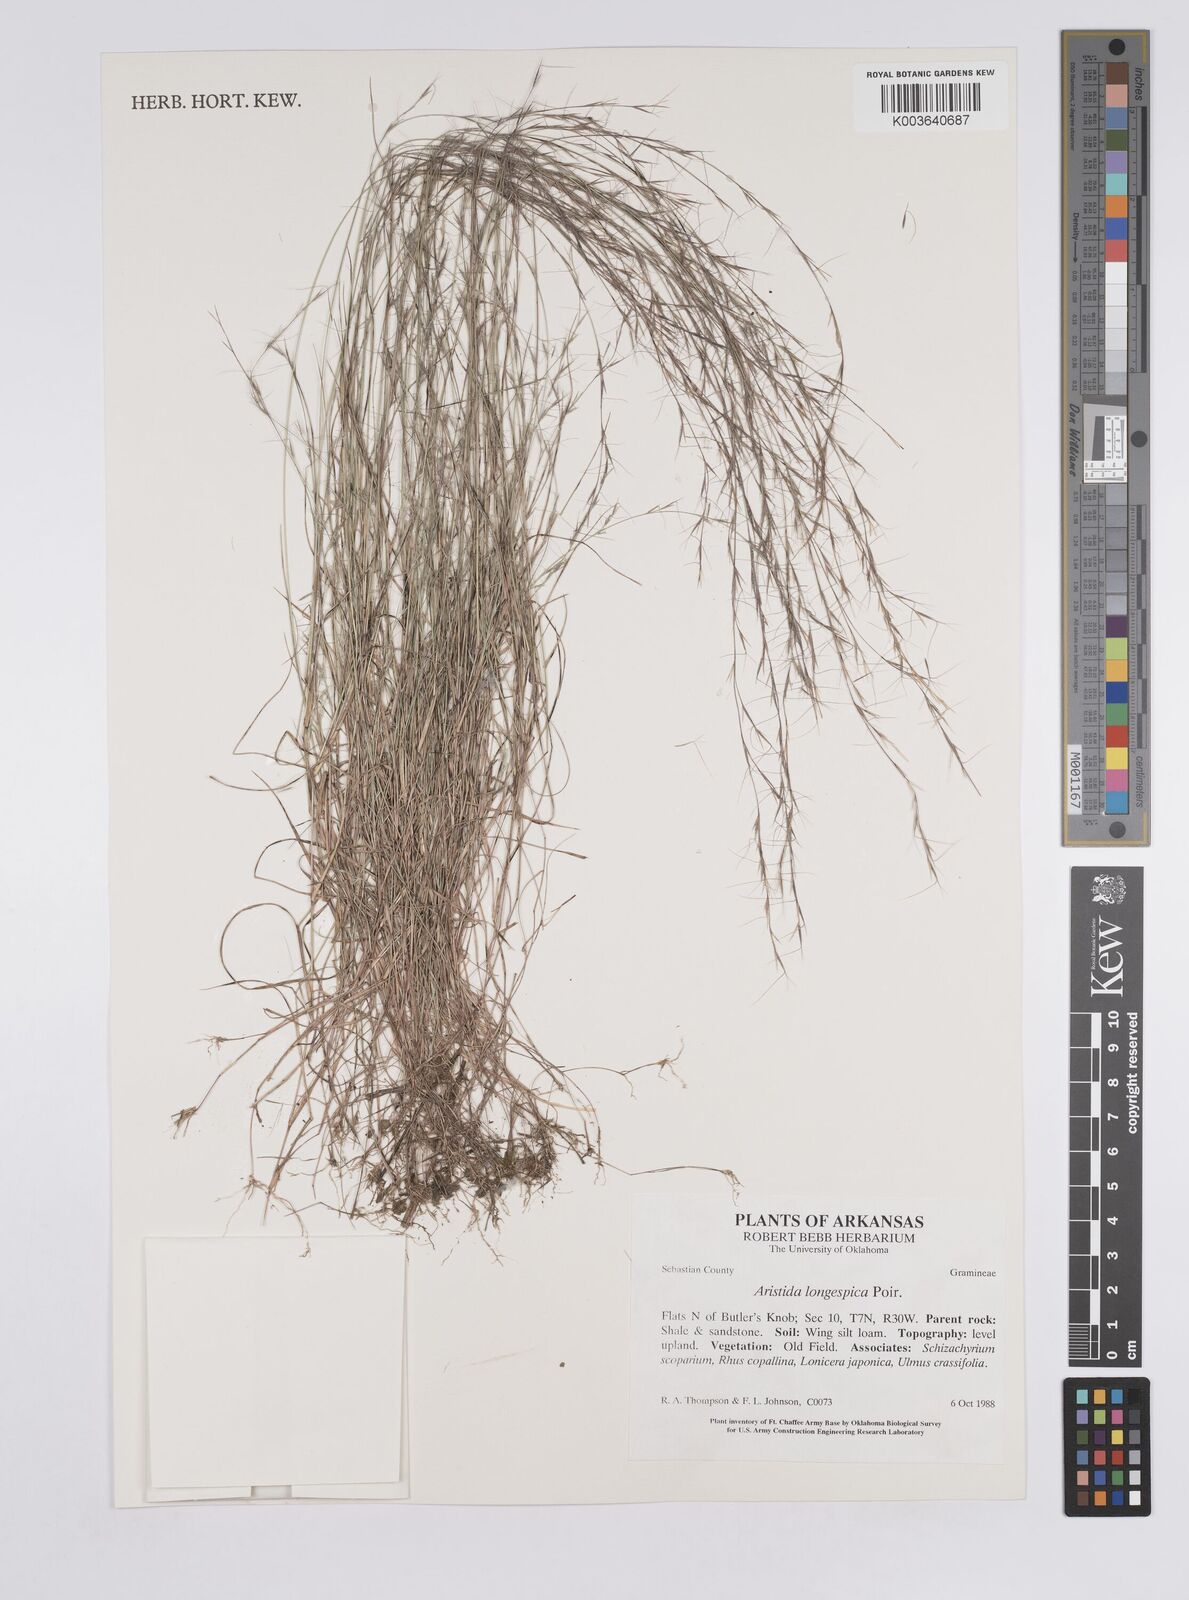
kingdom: Plantae
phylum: Tracheophyta
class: Liliopsida
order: Poales
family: Poaceae
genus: Aristida
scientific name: Aristida longespica
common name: Long-spiked triple-awned grass
